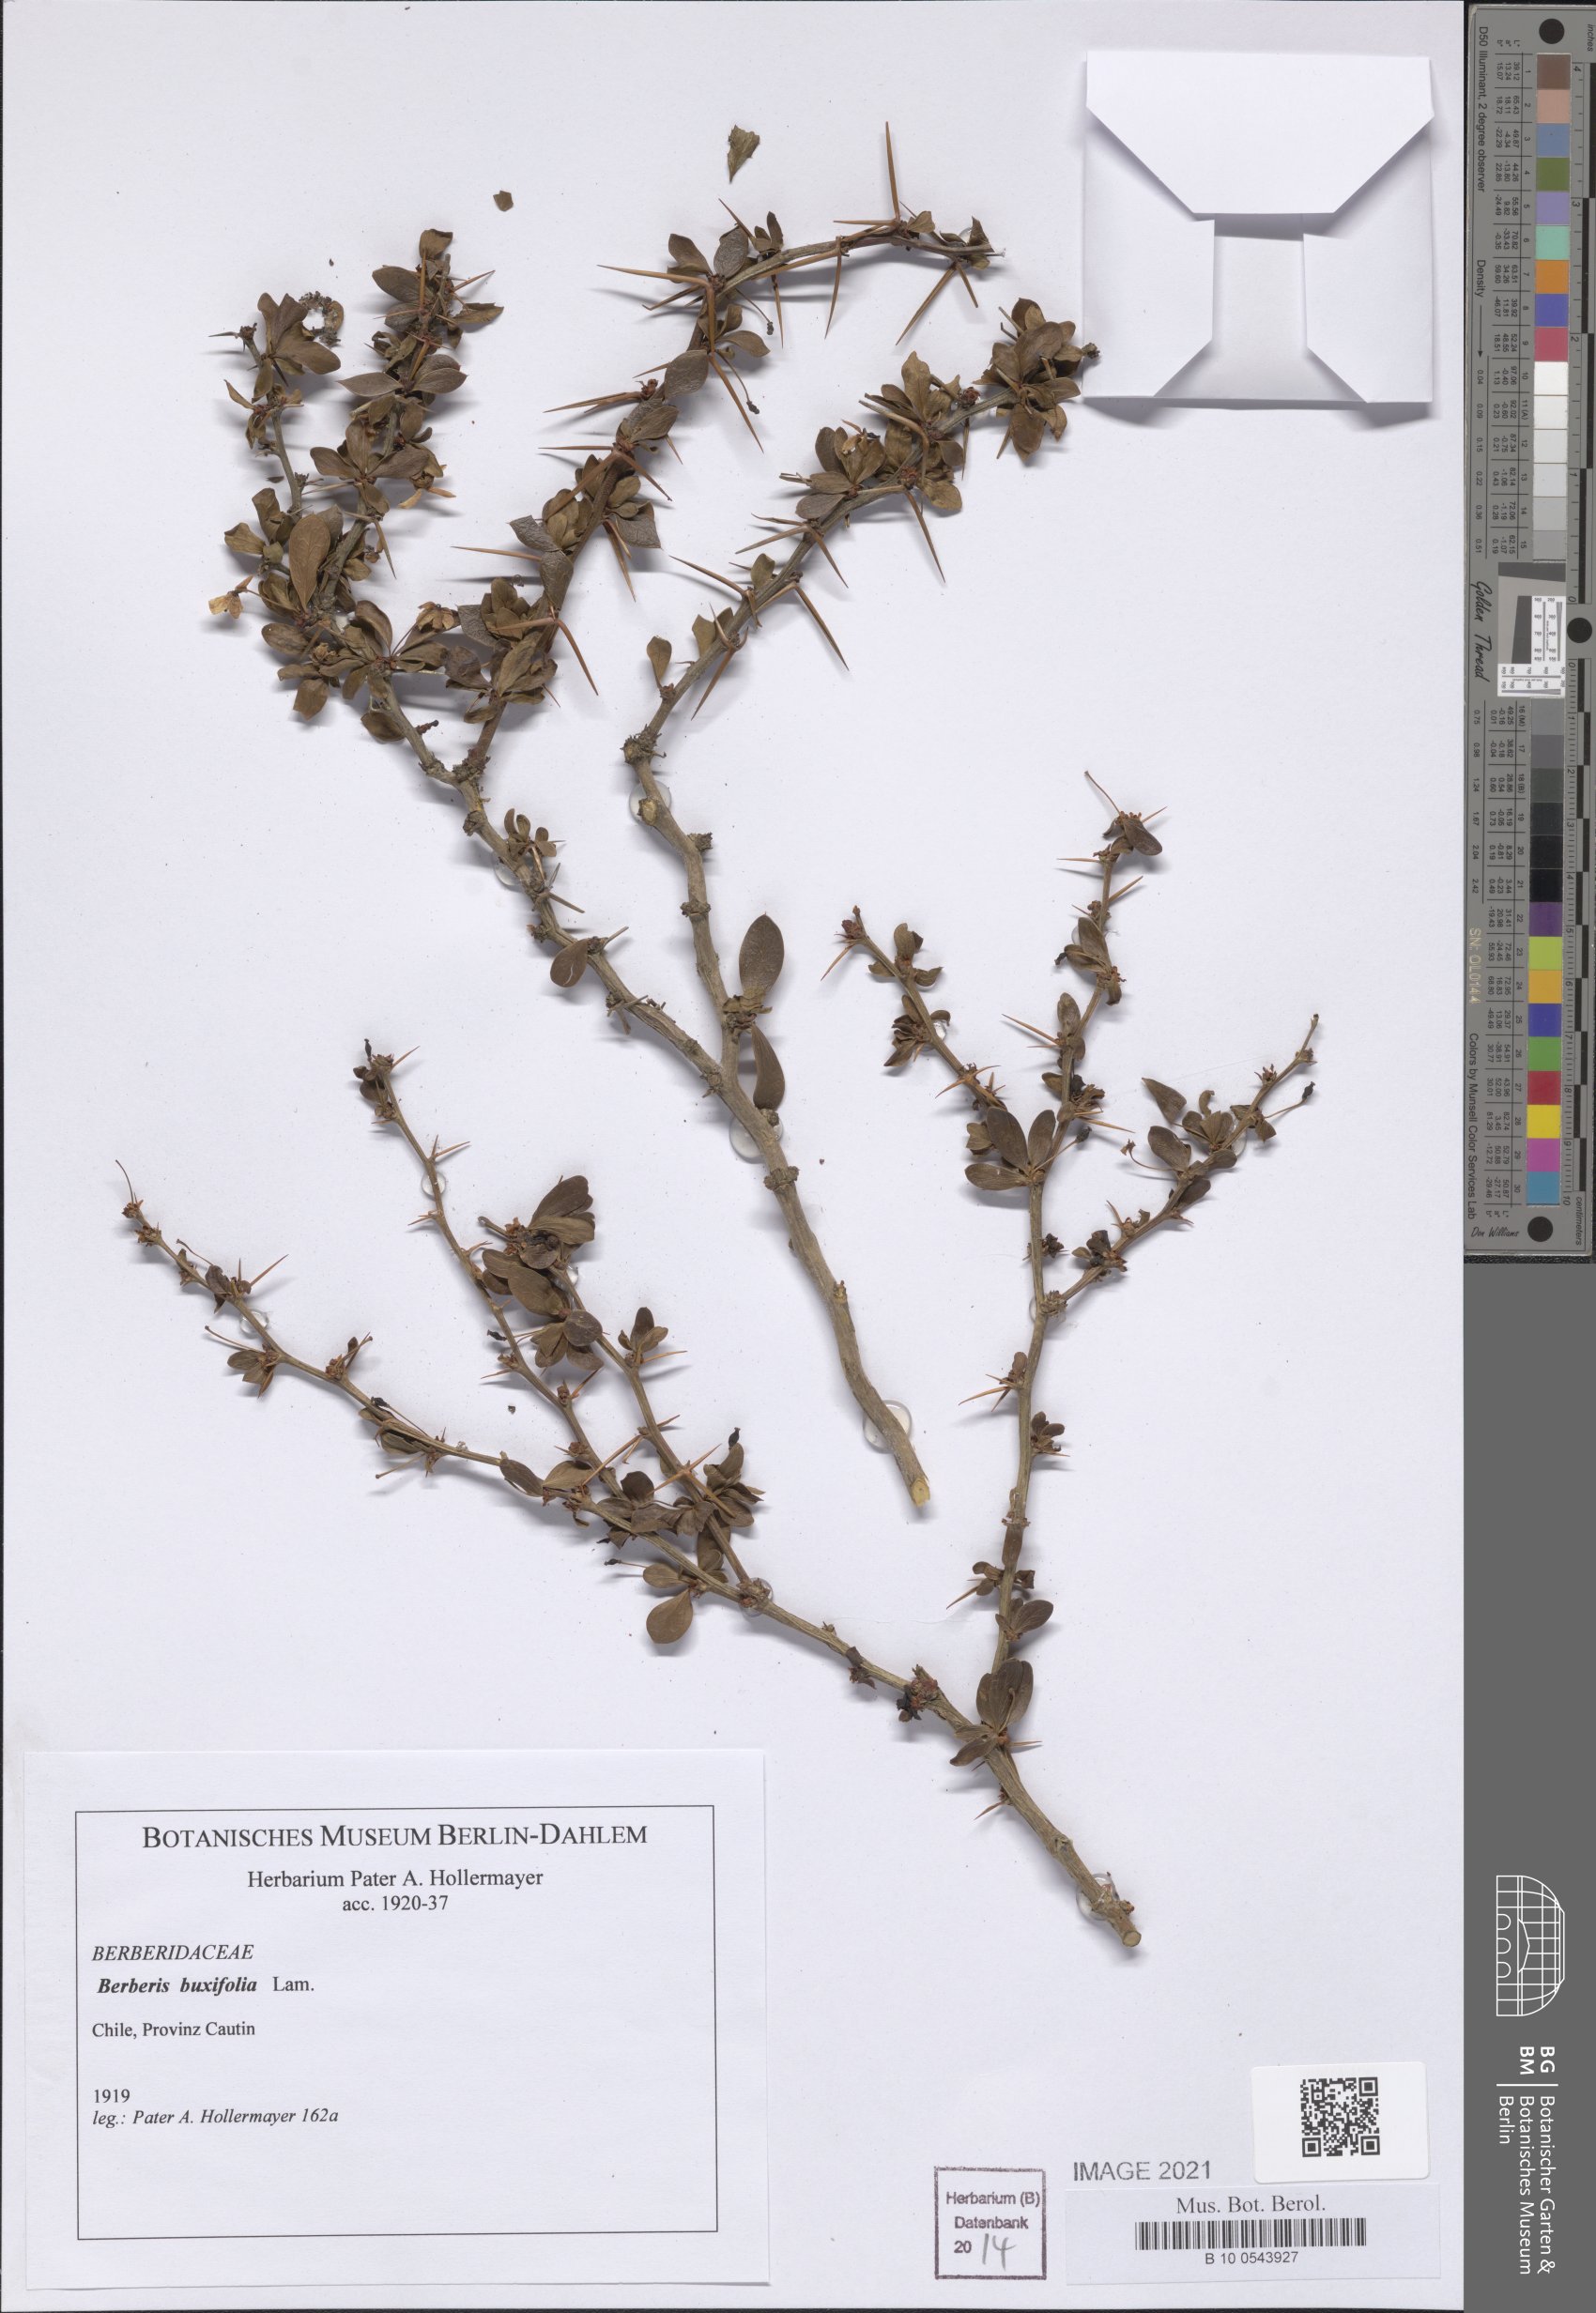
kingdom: Plantae
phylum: Tracheophyta
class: Magnoliopsida
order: Ranunculales
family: Berberidaceae
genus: Berberis
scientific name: Berberis microphylla
